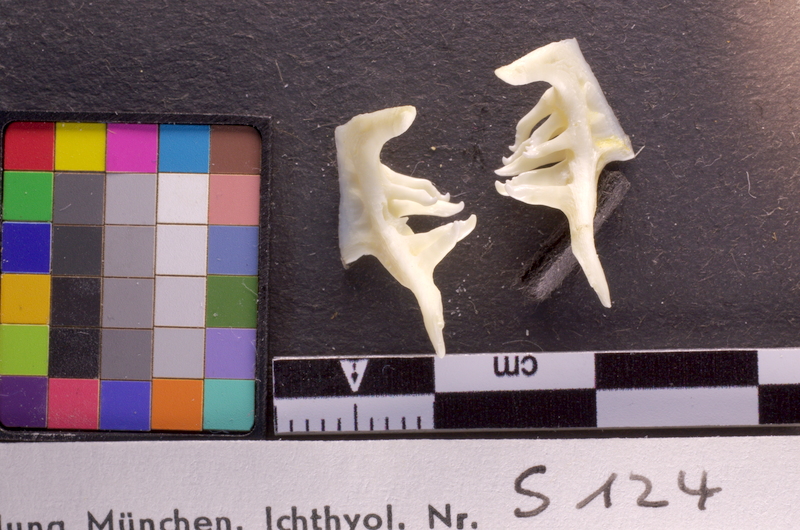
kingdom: Animalia
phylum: Chordata
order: Cypriniformes
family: Cyprinidae
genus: Squalius
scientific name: Squalius cephalus
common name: Chub
